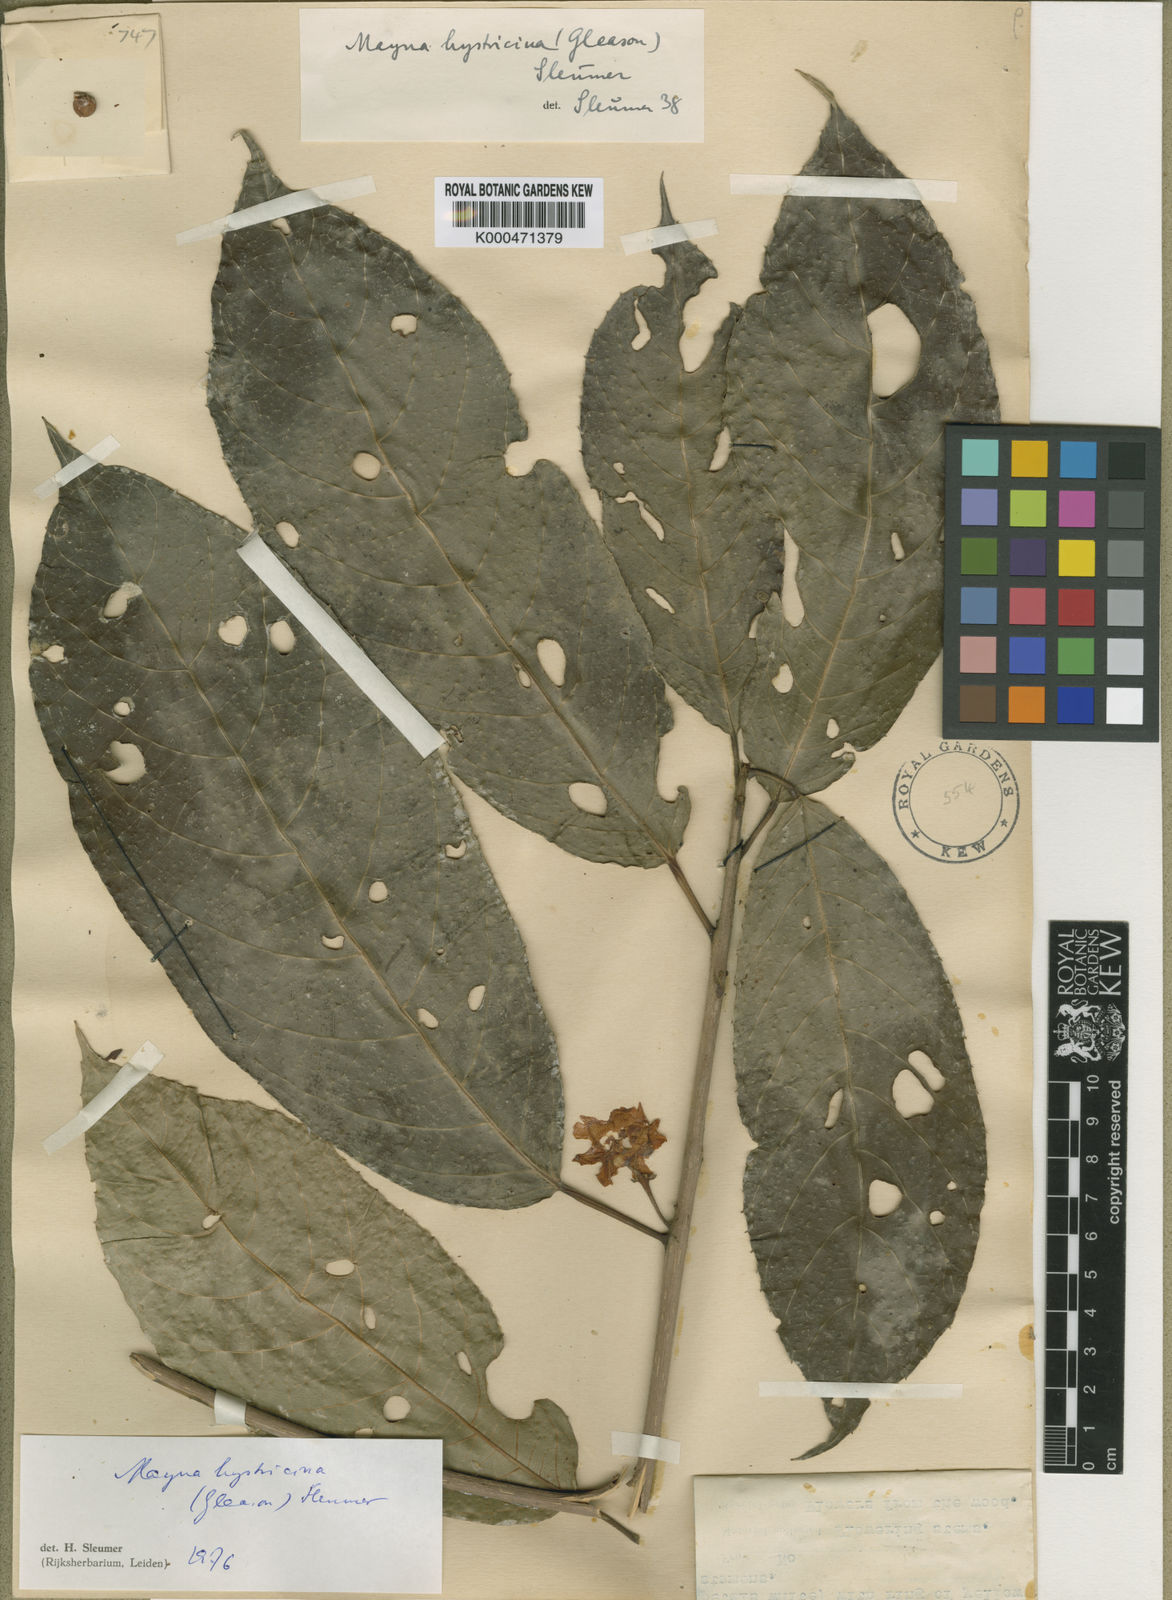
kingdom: Plantae
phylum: Tracheophyta
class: Magnoliopsida
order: Malpighiales
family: Achariaceae
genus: Mayna
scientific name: Mayna hystricina
